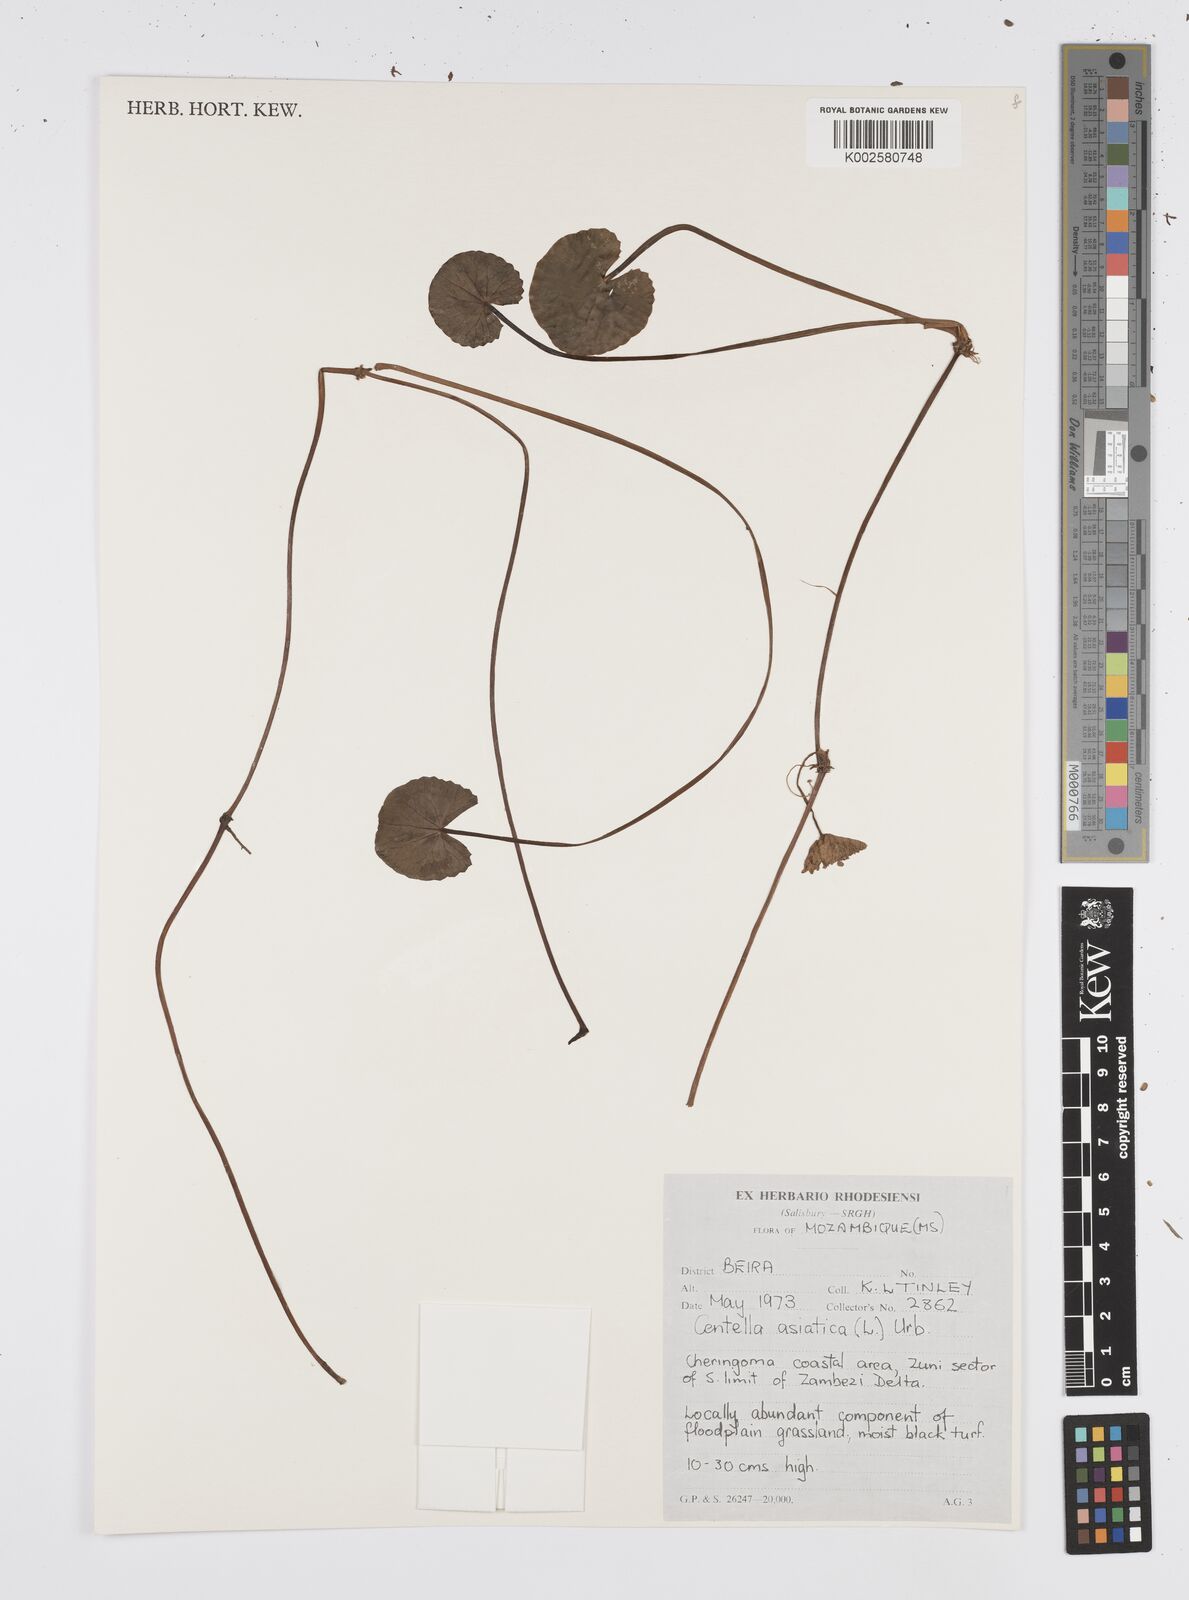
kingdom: Plantae
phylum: Tracheophyta
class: Magnoliopsida
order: Apiales
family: Apiaceae
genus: Centella
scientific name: Centella asiatica
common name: Spadeleaf
